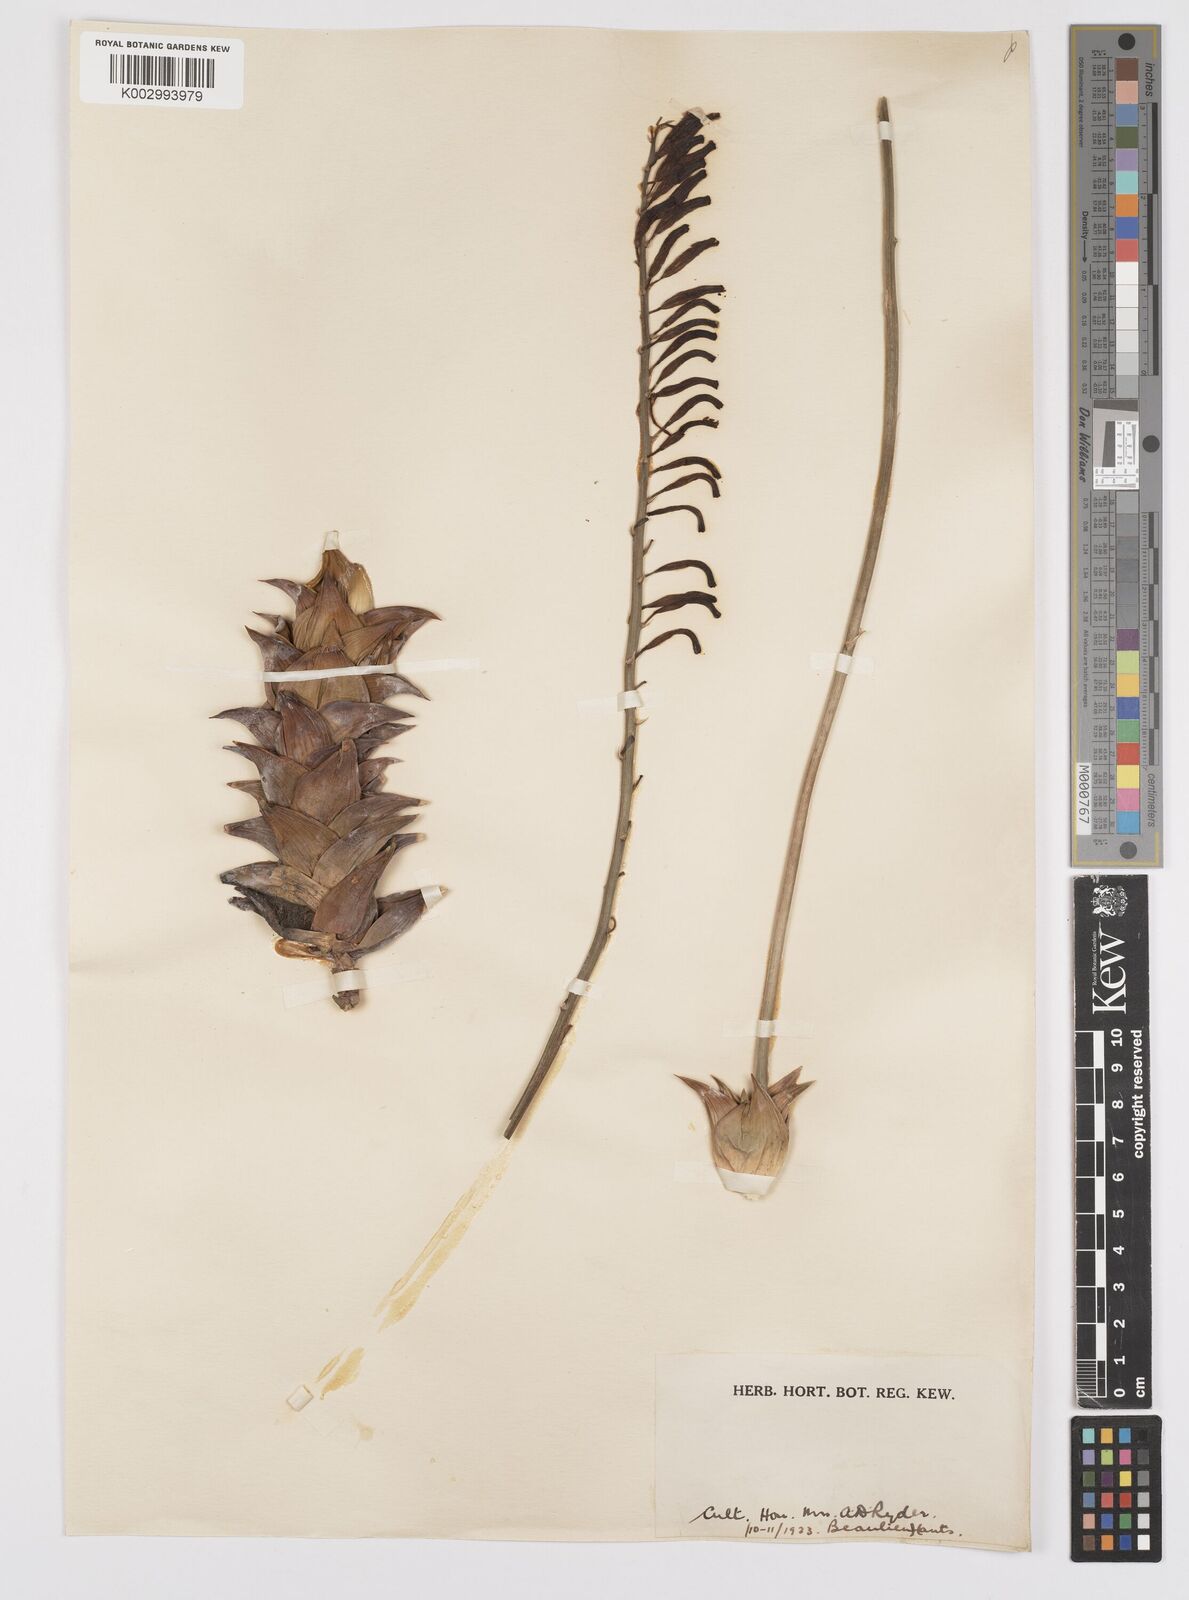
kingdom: Plantae
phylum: Tracheophyta
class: Liliopsida
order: Asparagales
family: Asphodelaceae
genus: Astroloba
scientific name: Astroloba rubriflora
